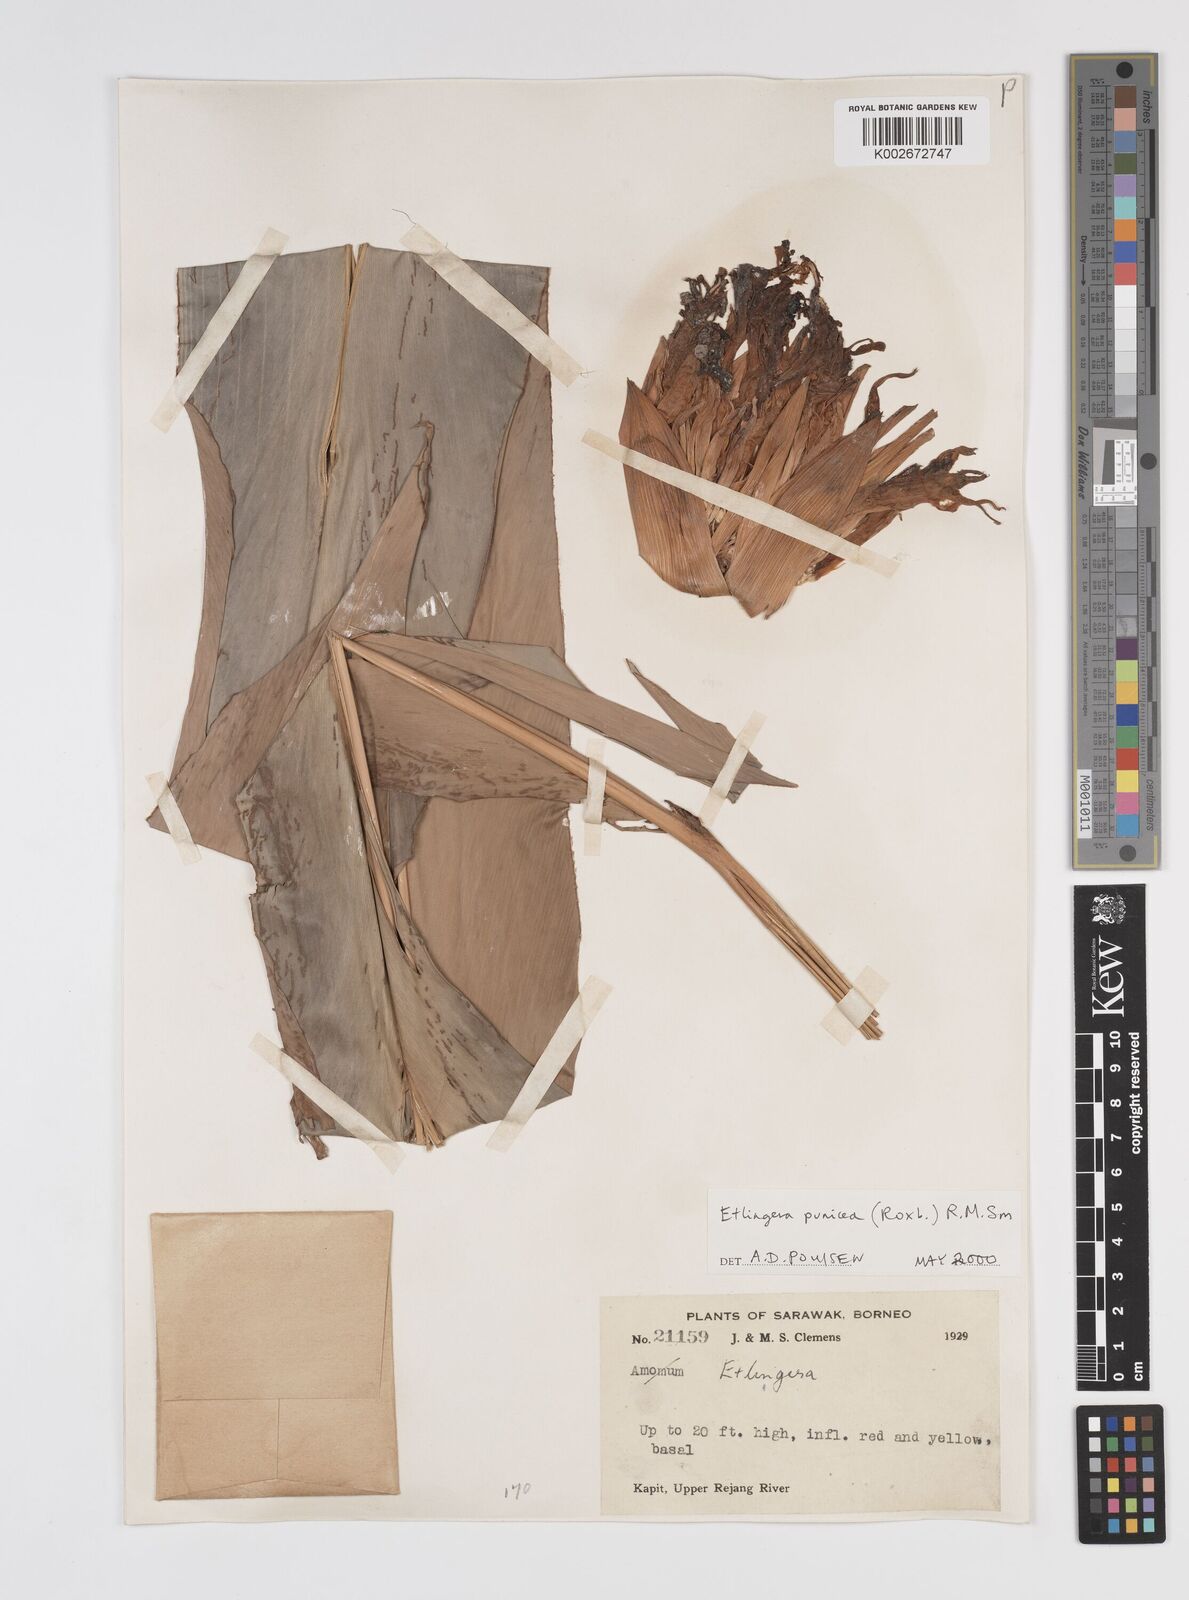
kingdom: Plantae
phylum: Tracheophyta
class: Liliopsida
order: Zingiberales
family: Zingiberaceae
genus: Etlingera
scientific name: Etlingera punicea
